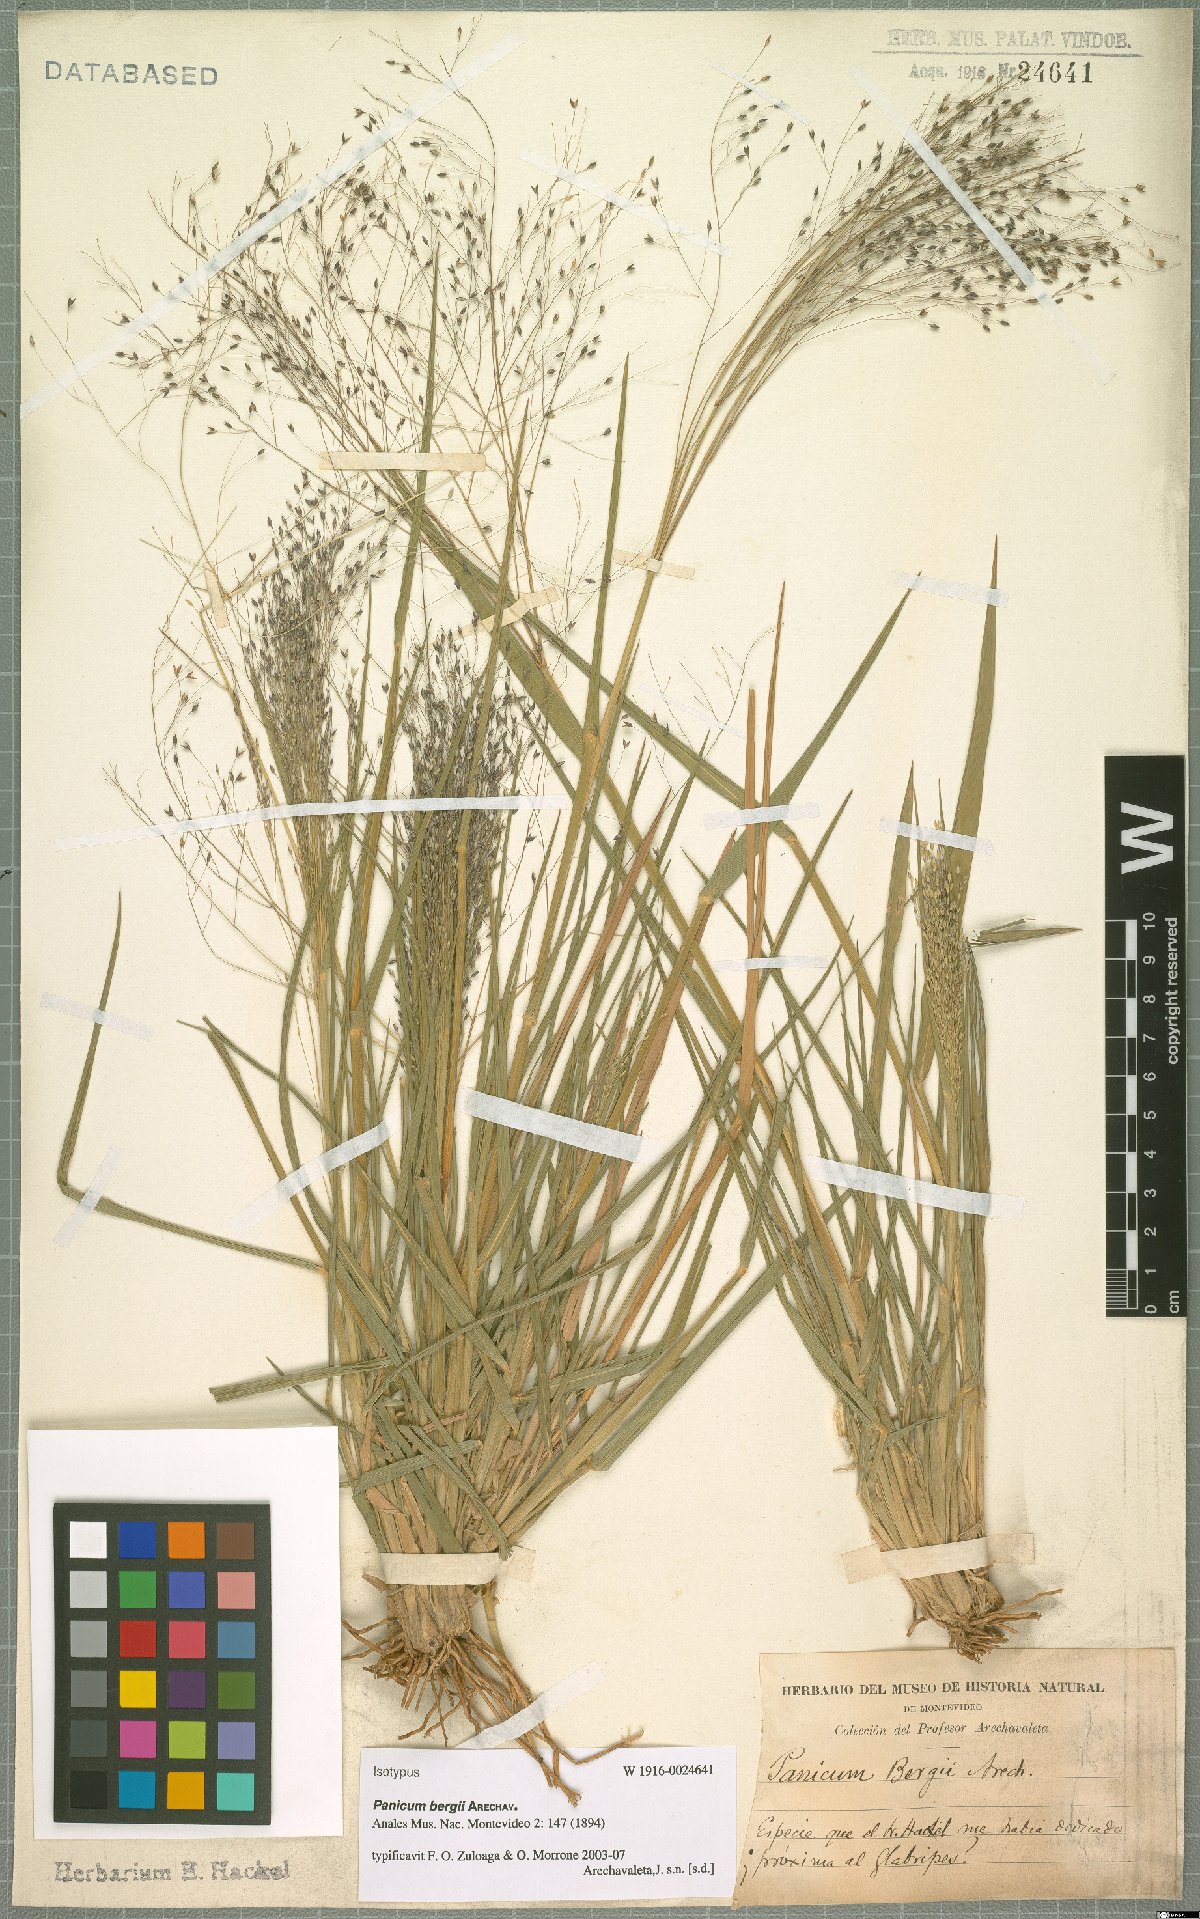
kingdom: Plantae
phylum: Tracheophyta
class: Liliopsida
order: Poales
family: Poaceae
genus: Panicum
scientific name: Panicum bergii
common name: Berg's panicgrass
